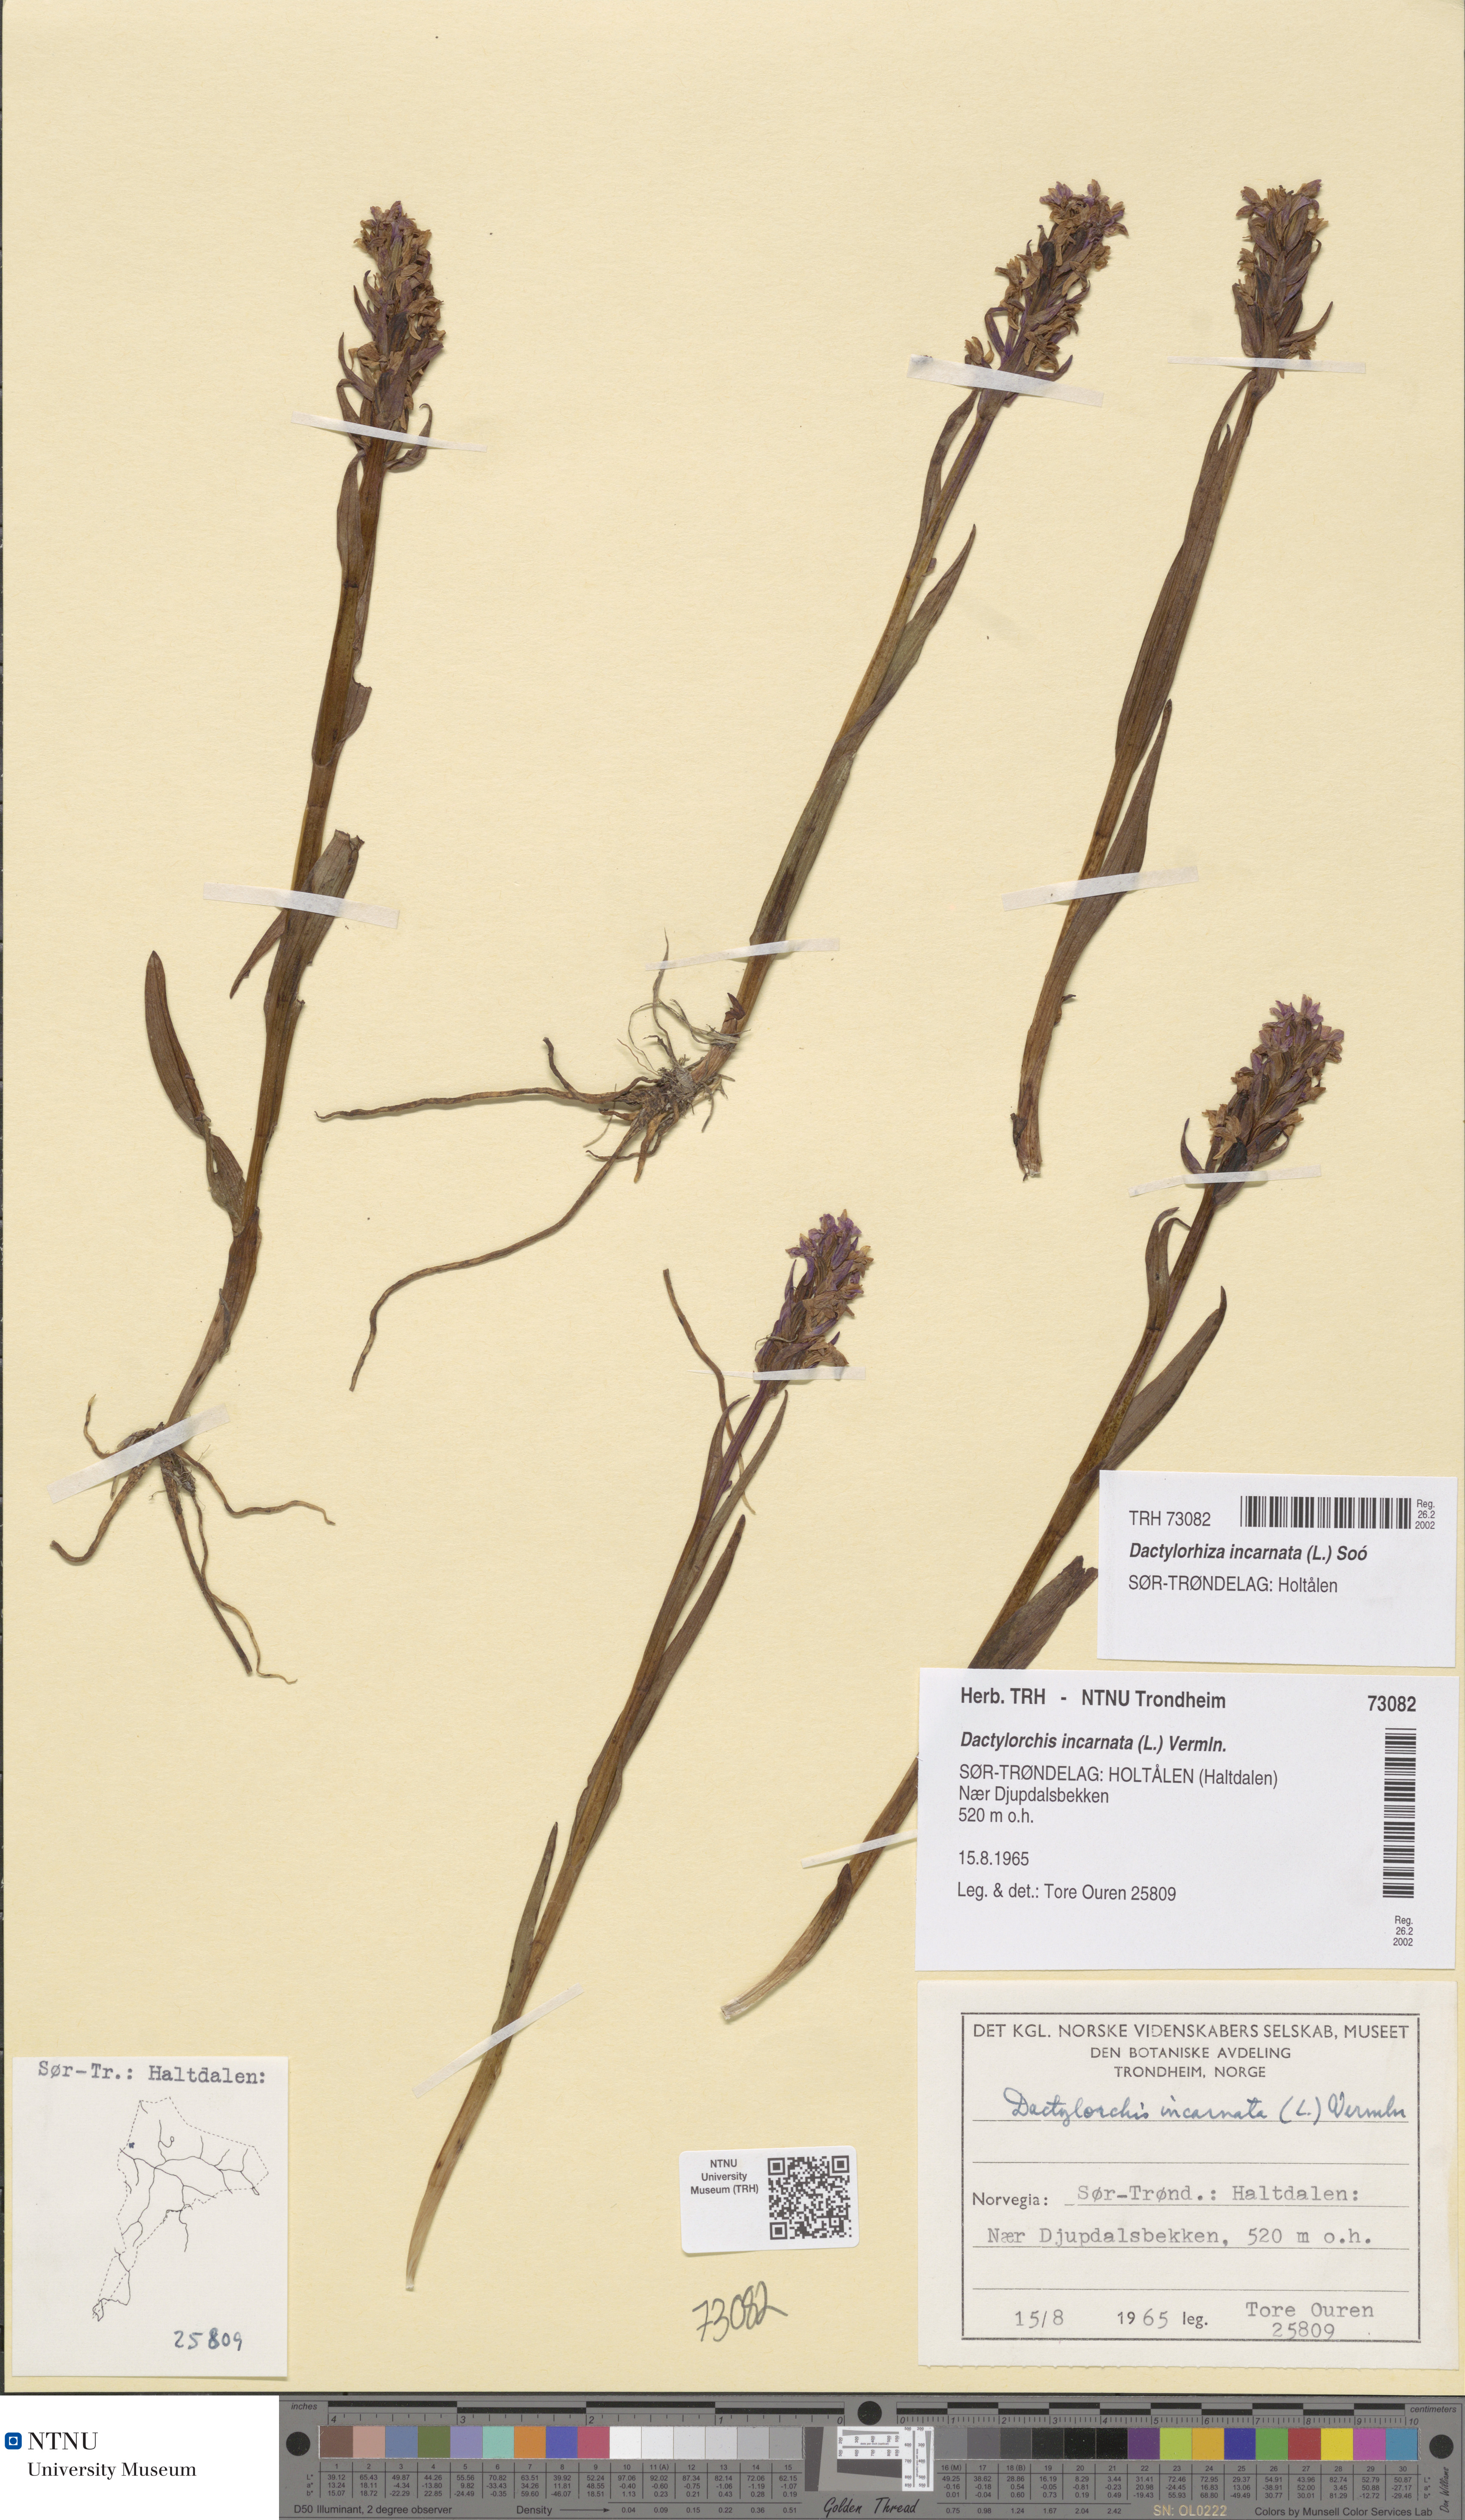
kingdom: Plantae
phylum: Tracheophyta
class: Liliopsida
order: Asparagales
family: Orchidaceae
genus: Dactylorhiza
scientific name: Dactylorhiza incarnata
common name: Early marsh-orchid
